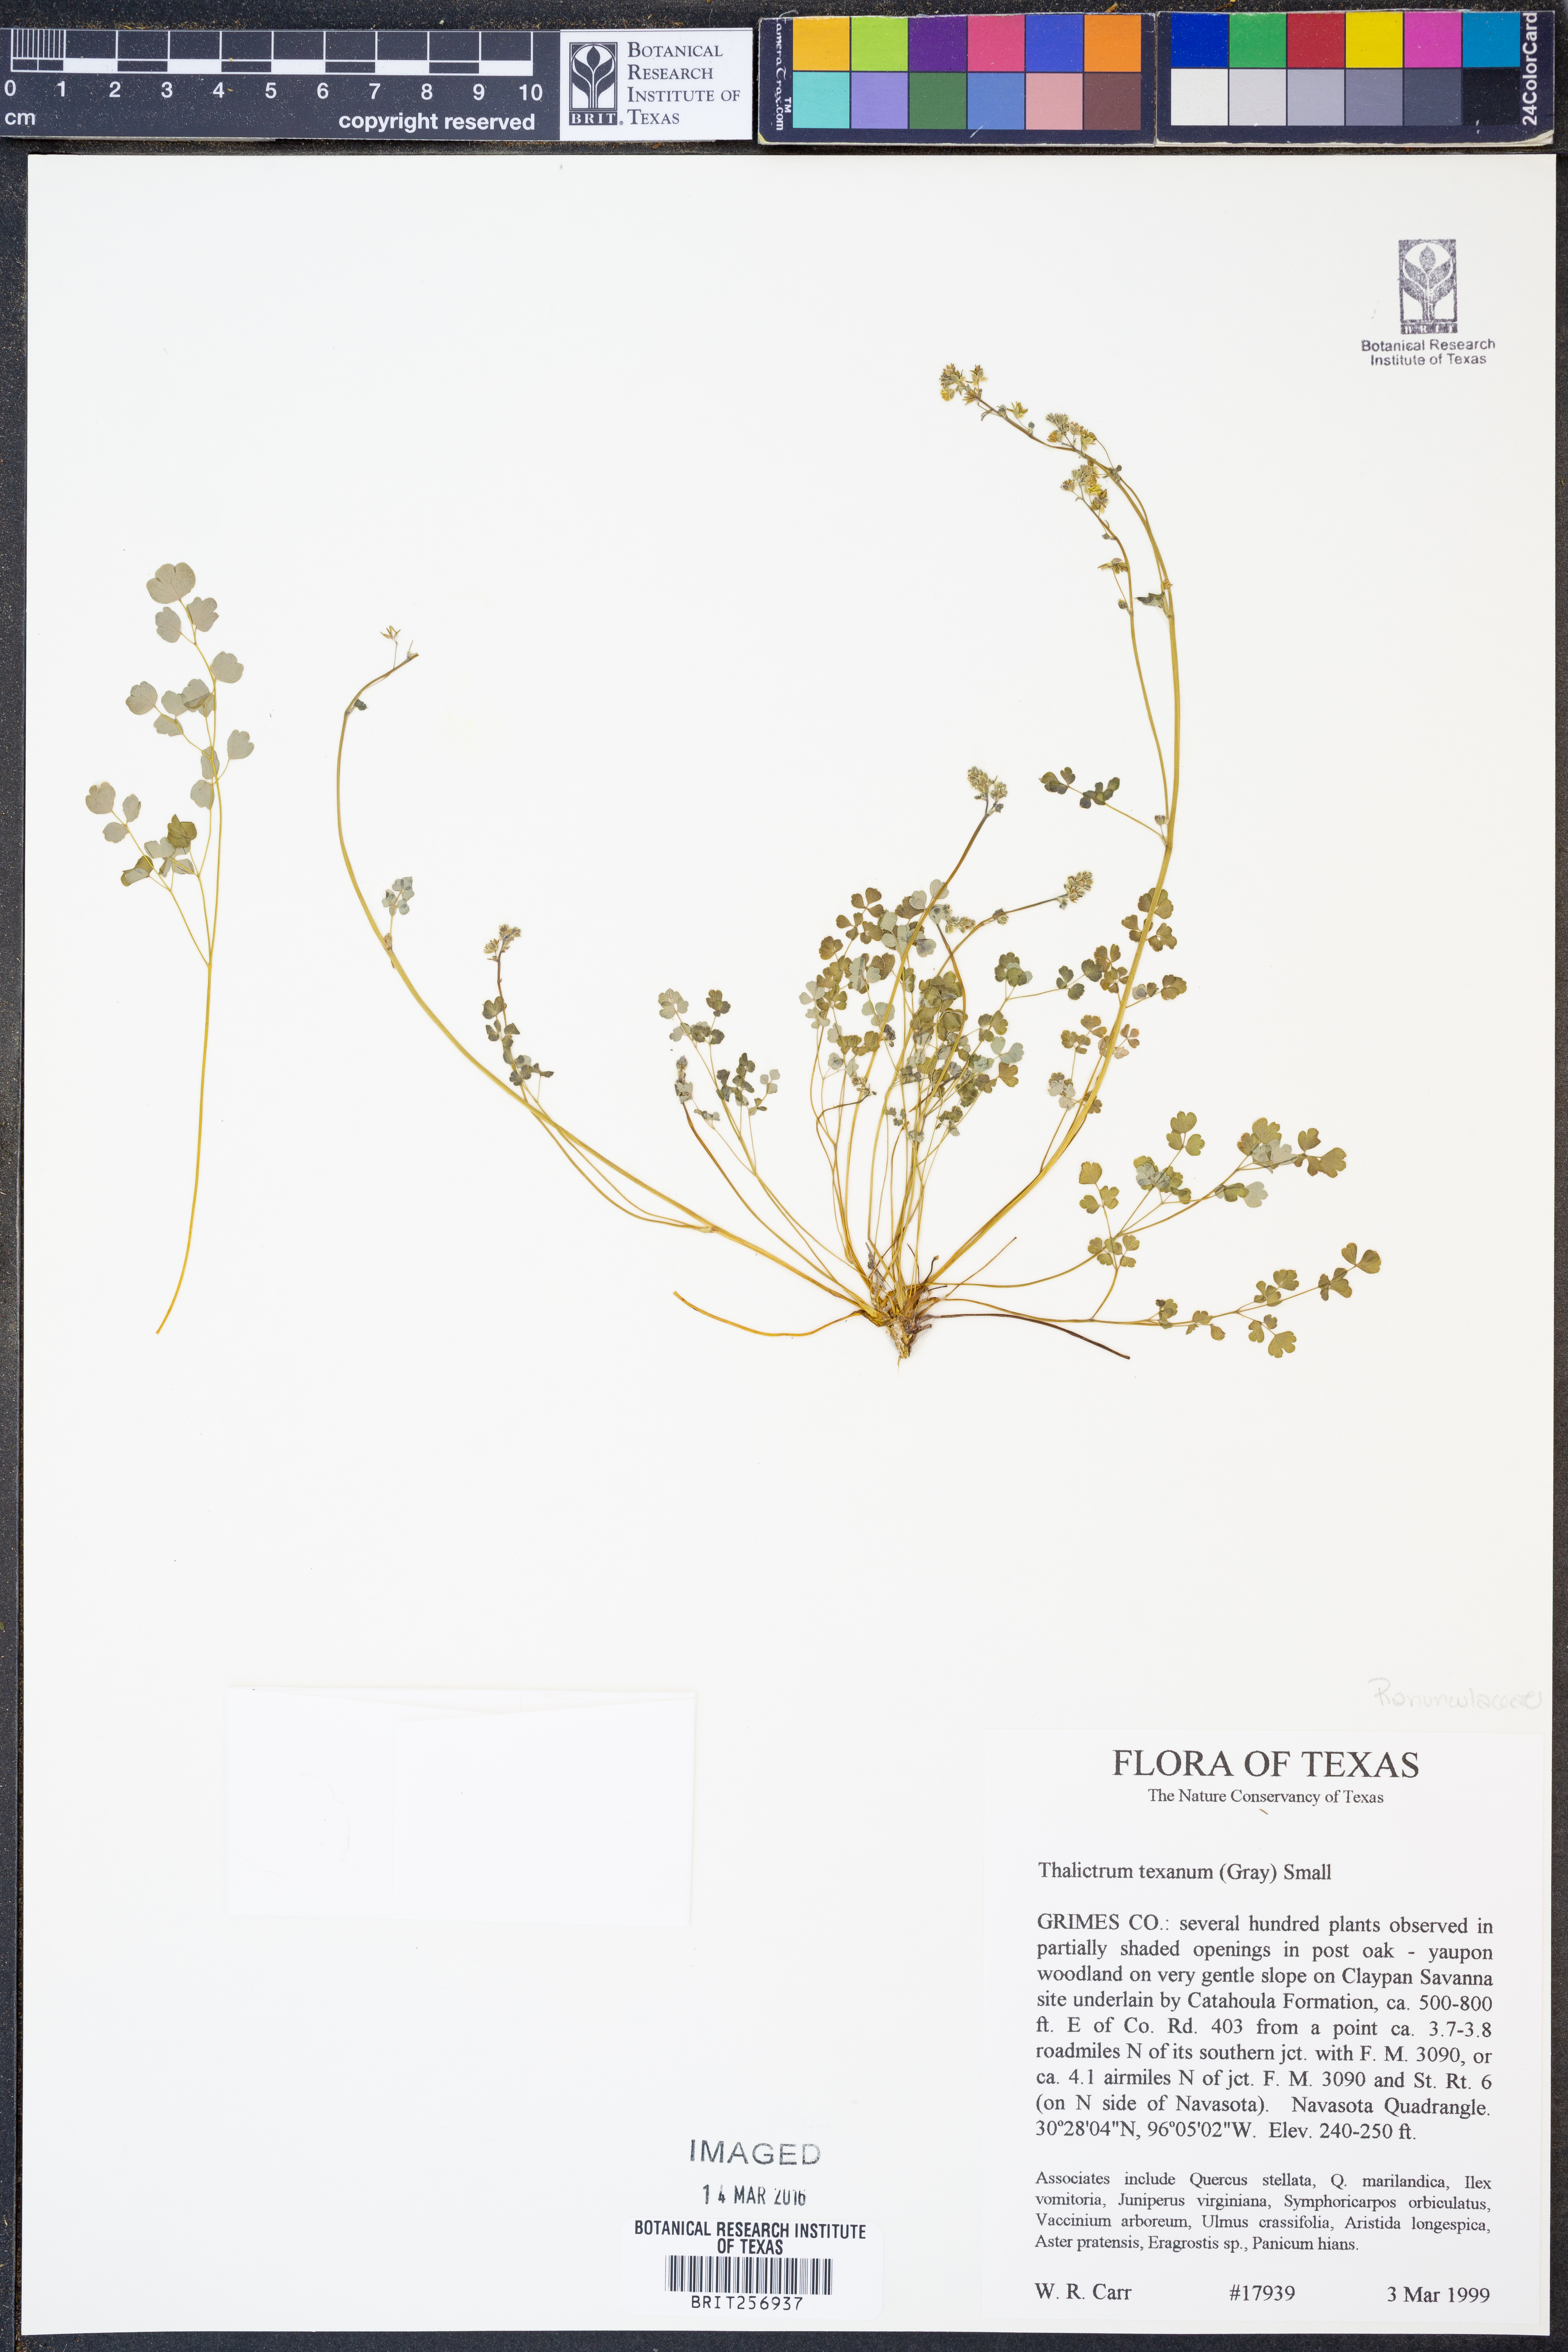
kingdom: Plantae
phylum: Tracheophyta
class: Magnoliopsida
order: Ranunculales
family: Ranunculaceae
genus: Thalictrum
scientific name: Thalictrum texanum
